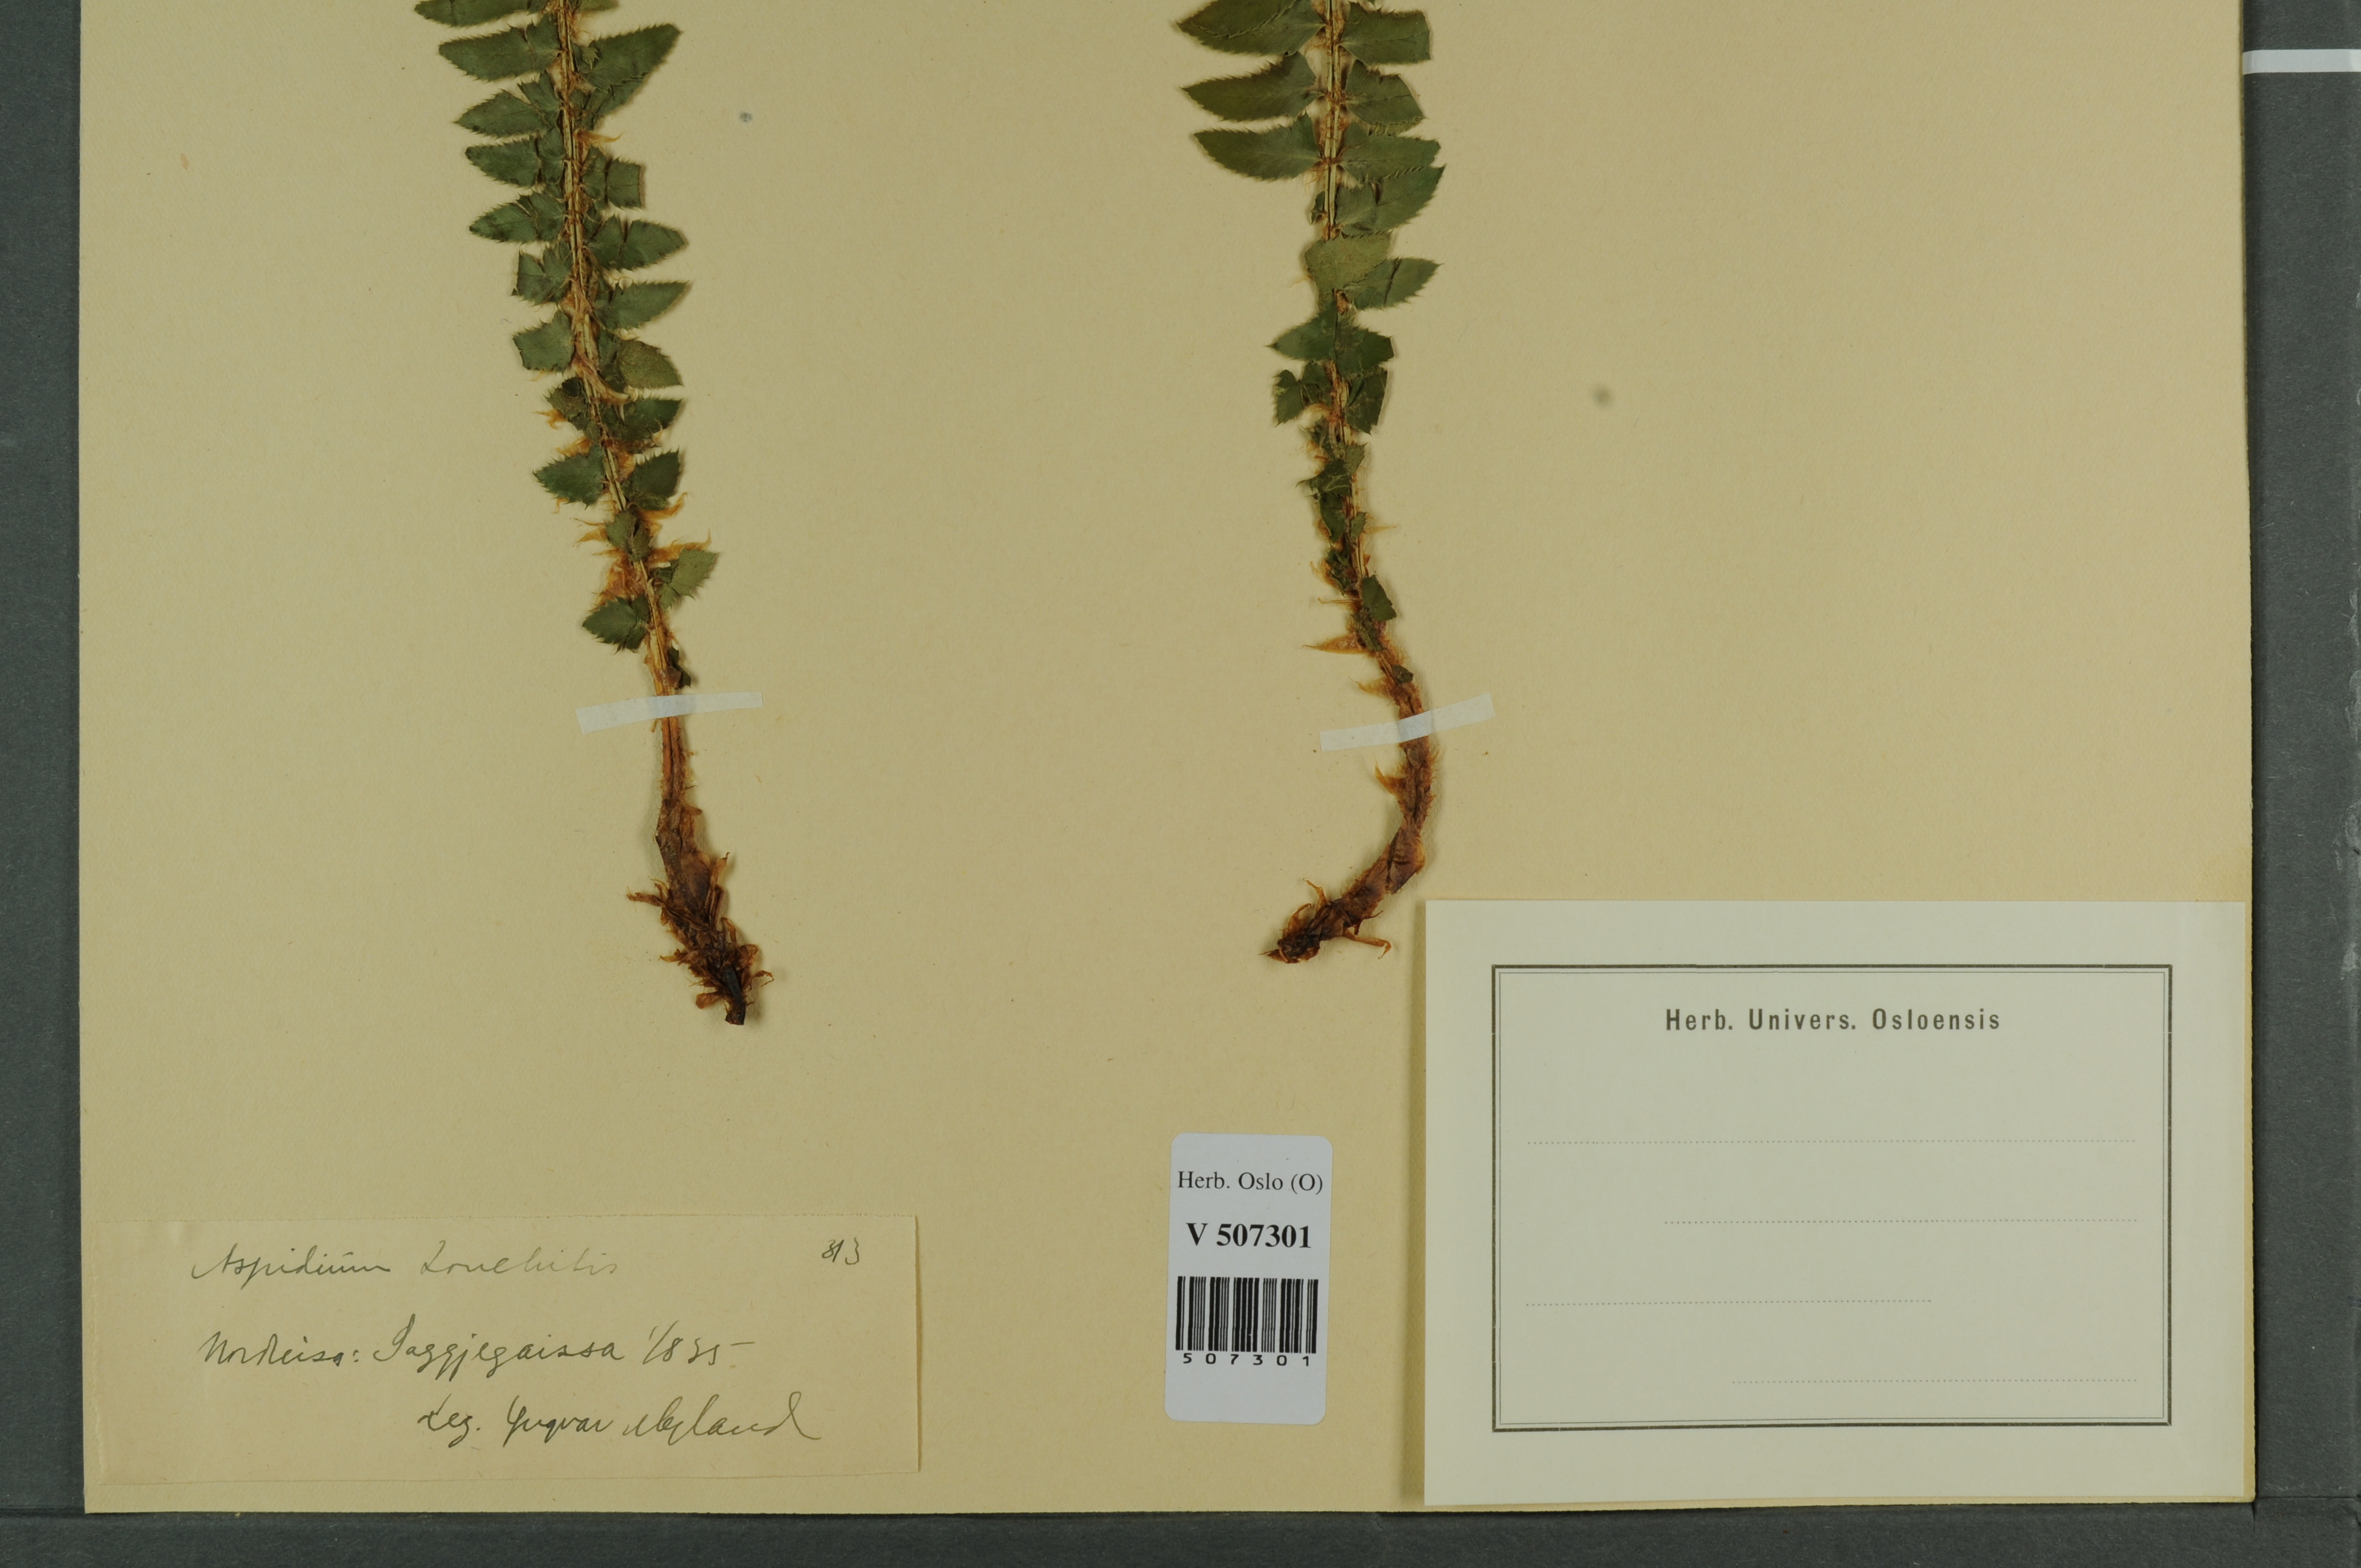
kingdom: Plantae
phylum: Tracheophyta
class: Polypodiopsida
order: Polypodiales
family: Dryopteridaceae
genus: Polystichum
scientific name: Polystichum lonchitis
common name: Holly fern
